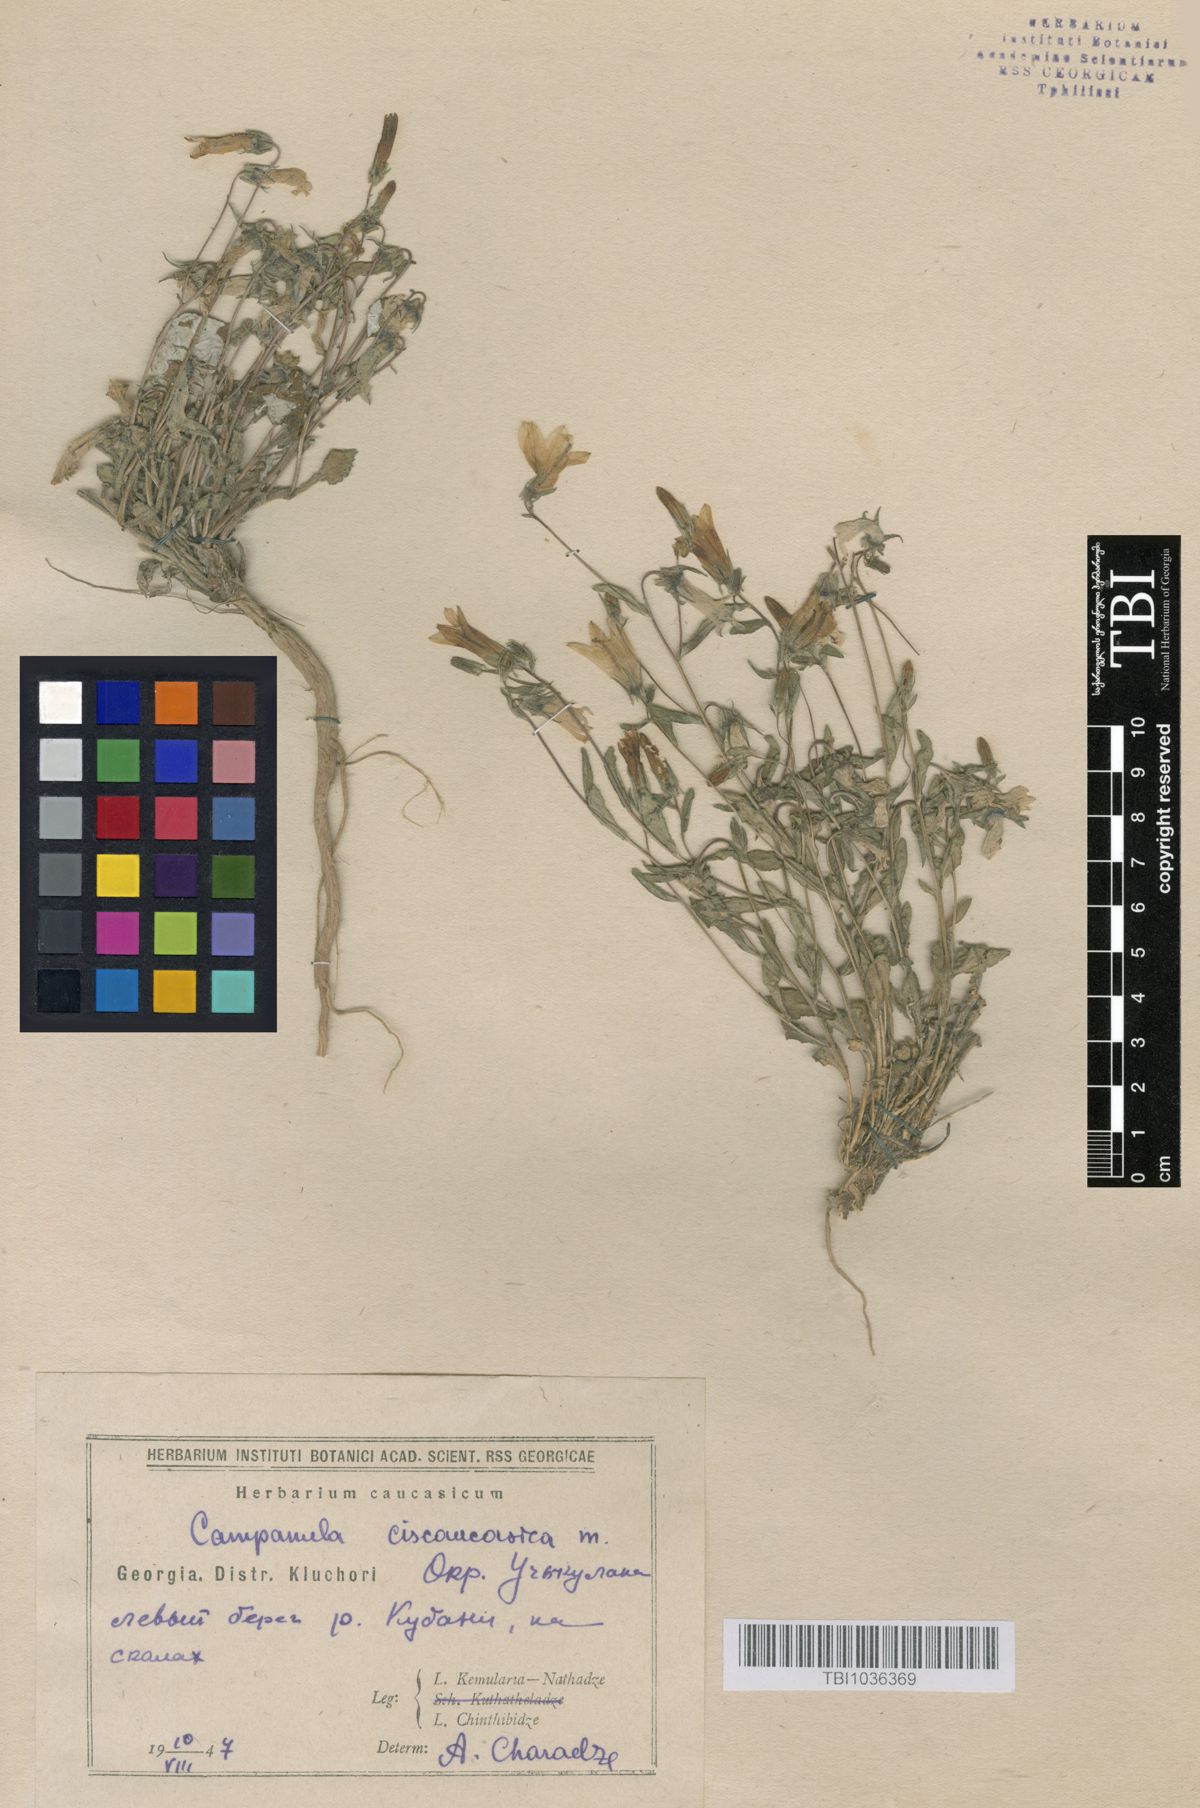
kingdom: Plantae
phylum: Tracheophyta
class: Magnoliopsida
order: Asterales
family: Campanulaceae
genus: Campanula
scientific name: Campanula sibirica
